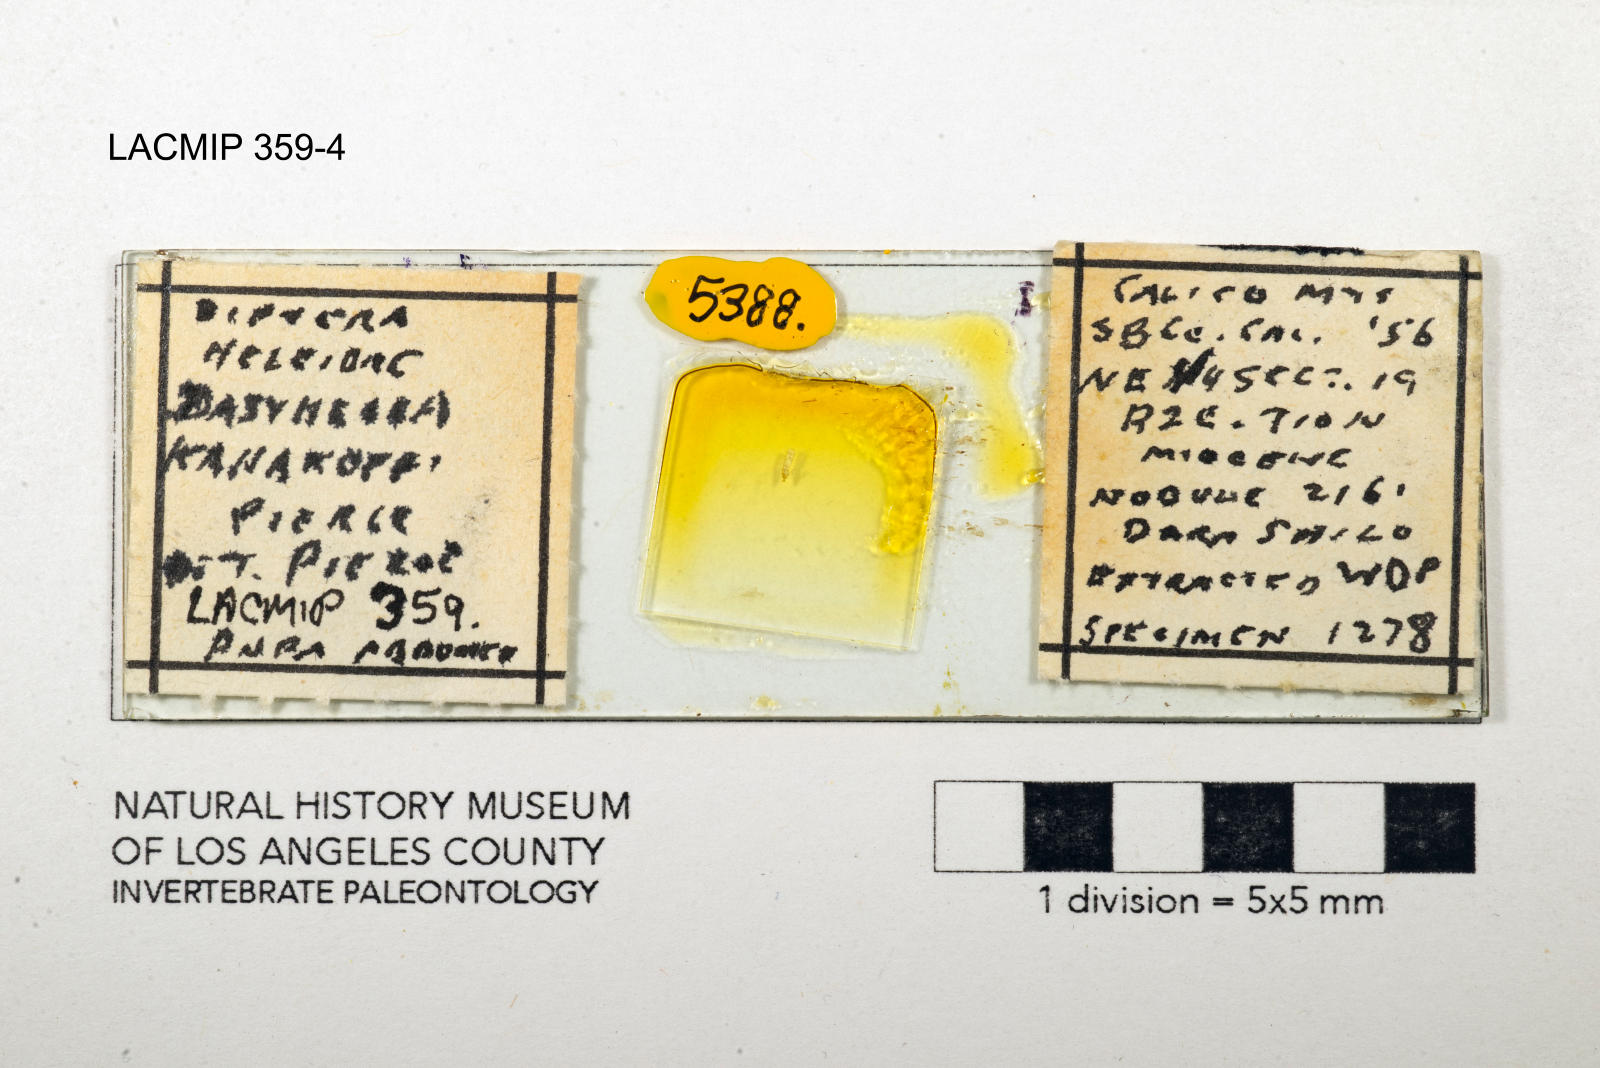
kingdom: Animalia
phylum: Arthropoda
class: Insecta
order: Diptera
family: Ceratopogonidae
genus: Dasyhelea
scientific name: Dasyhelea kanakoffi
